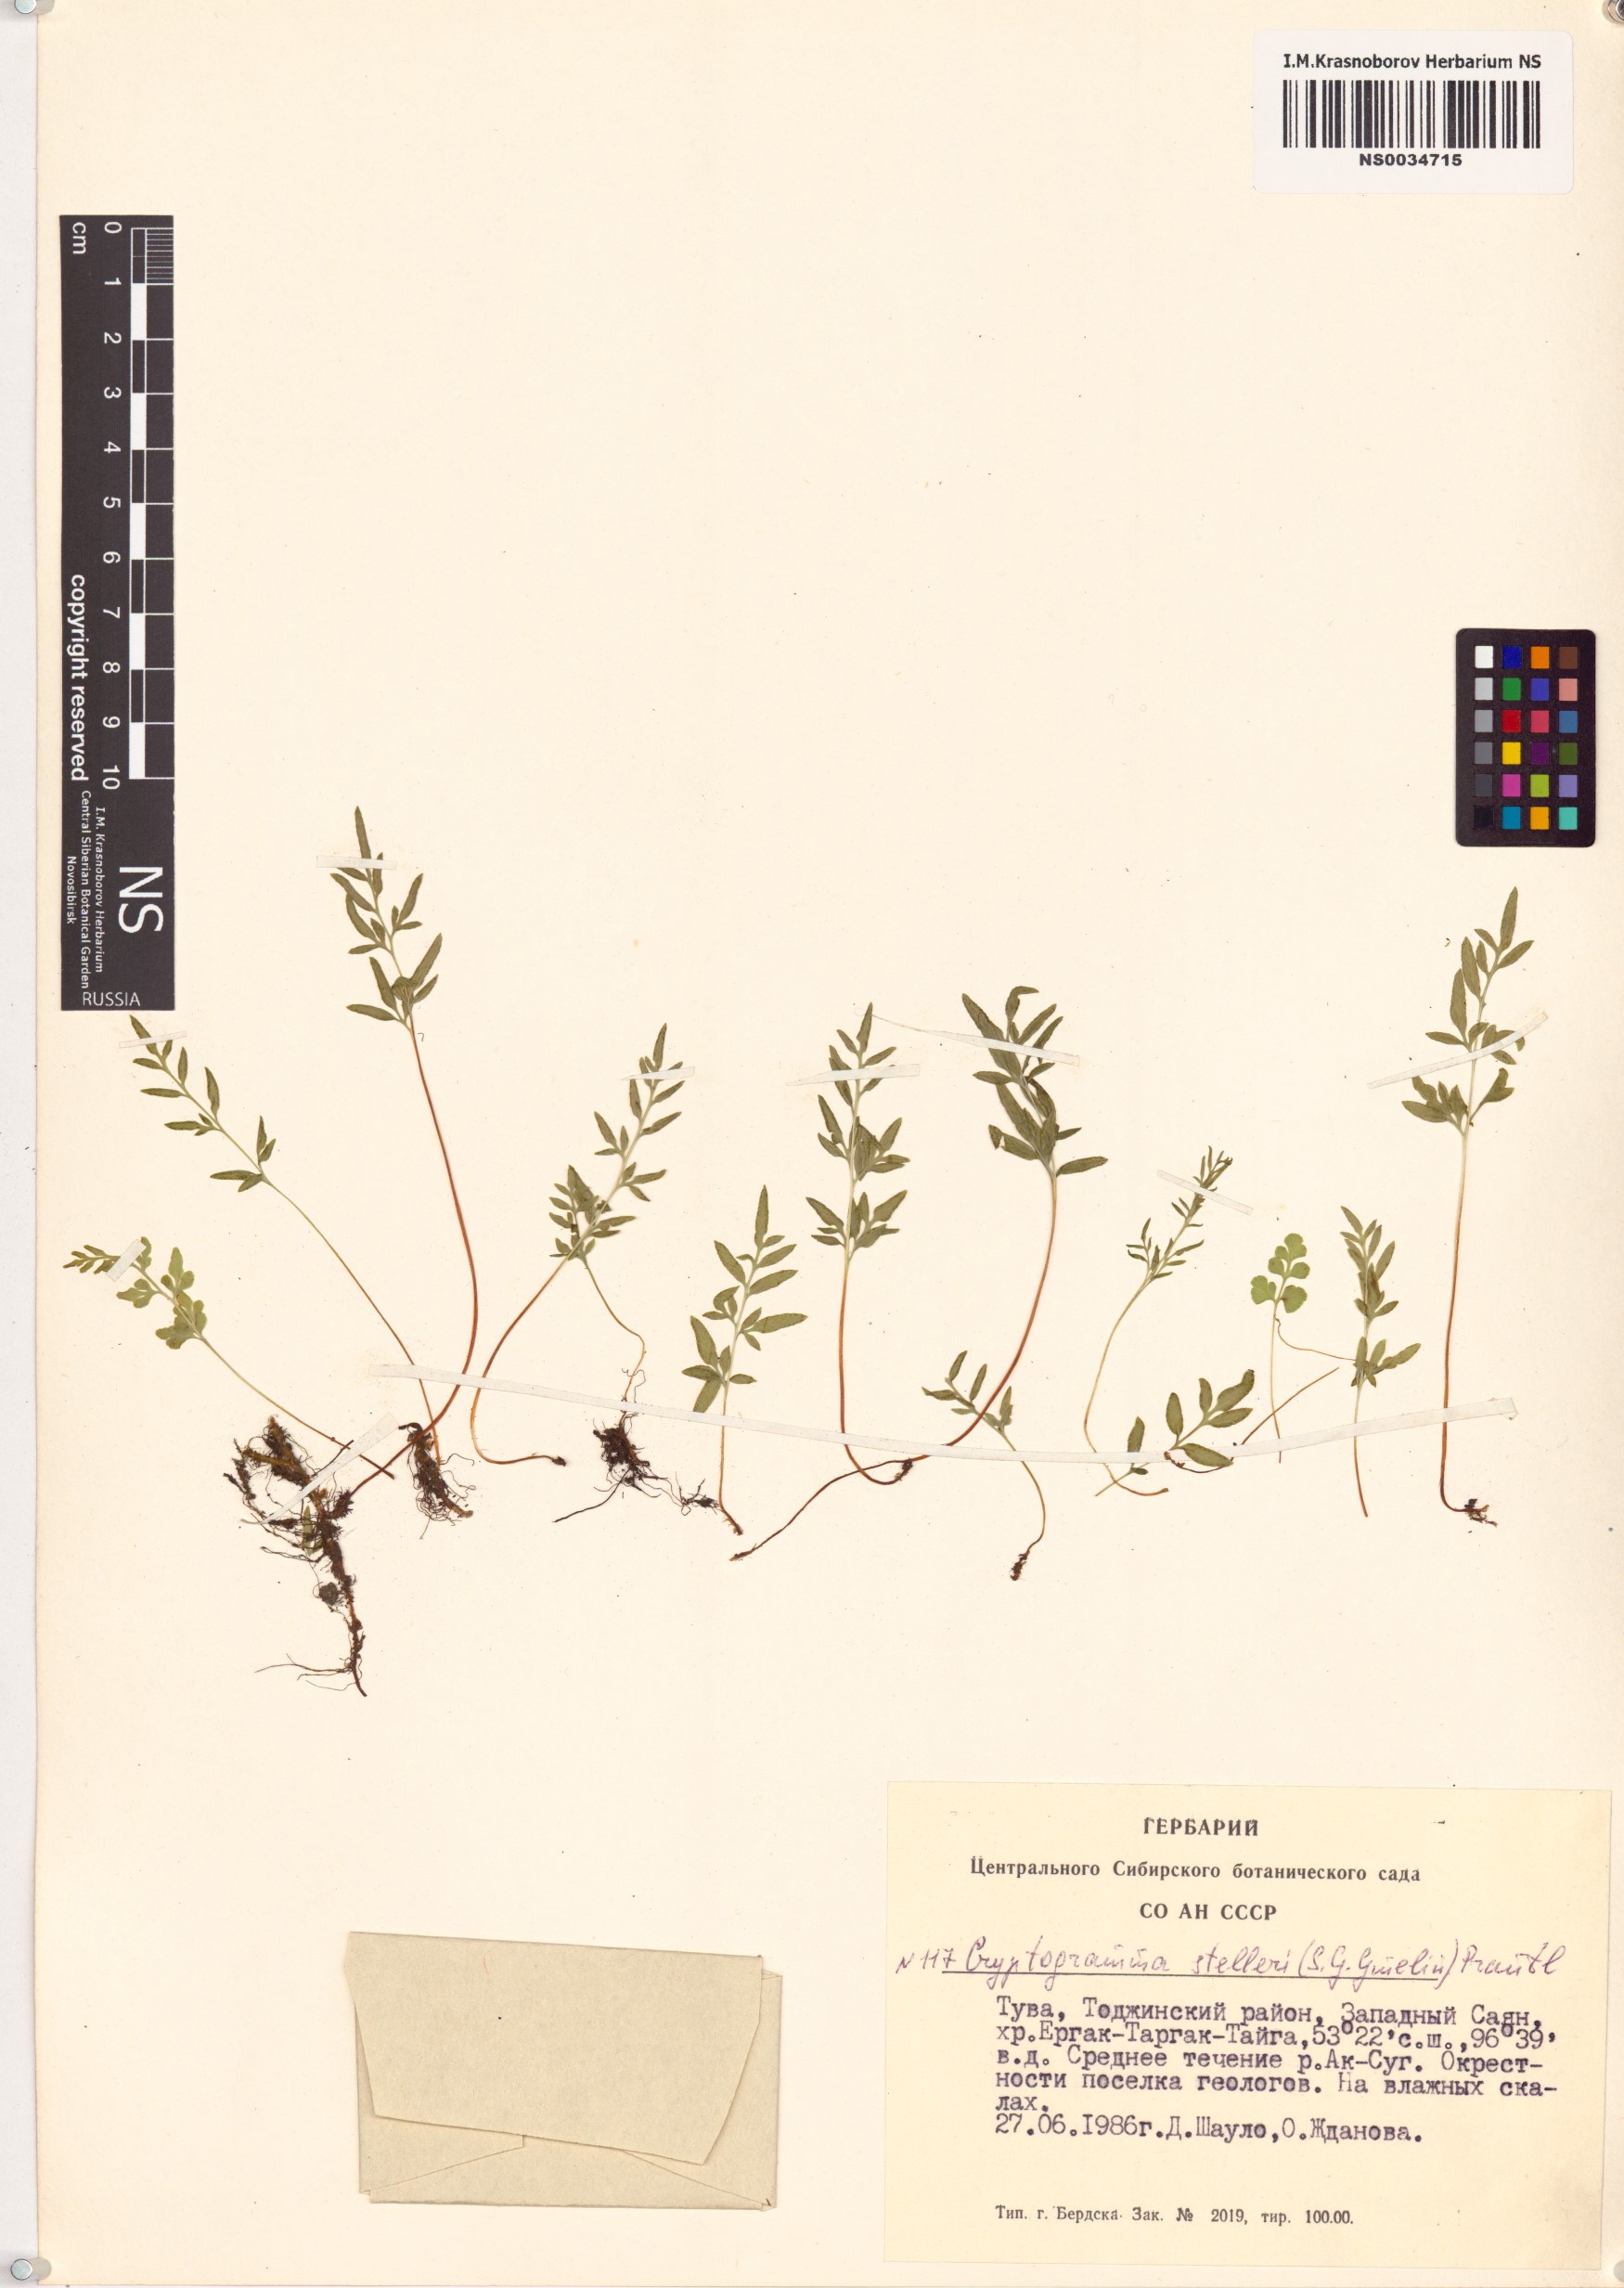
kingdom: Plantae
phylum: Tracheophyta
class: Polypodiopsida
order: Polypodiales
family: Pteridaceae
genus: Cryptogramma
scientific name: Cryptogramma stelleri
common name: Cliff-brake
